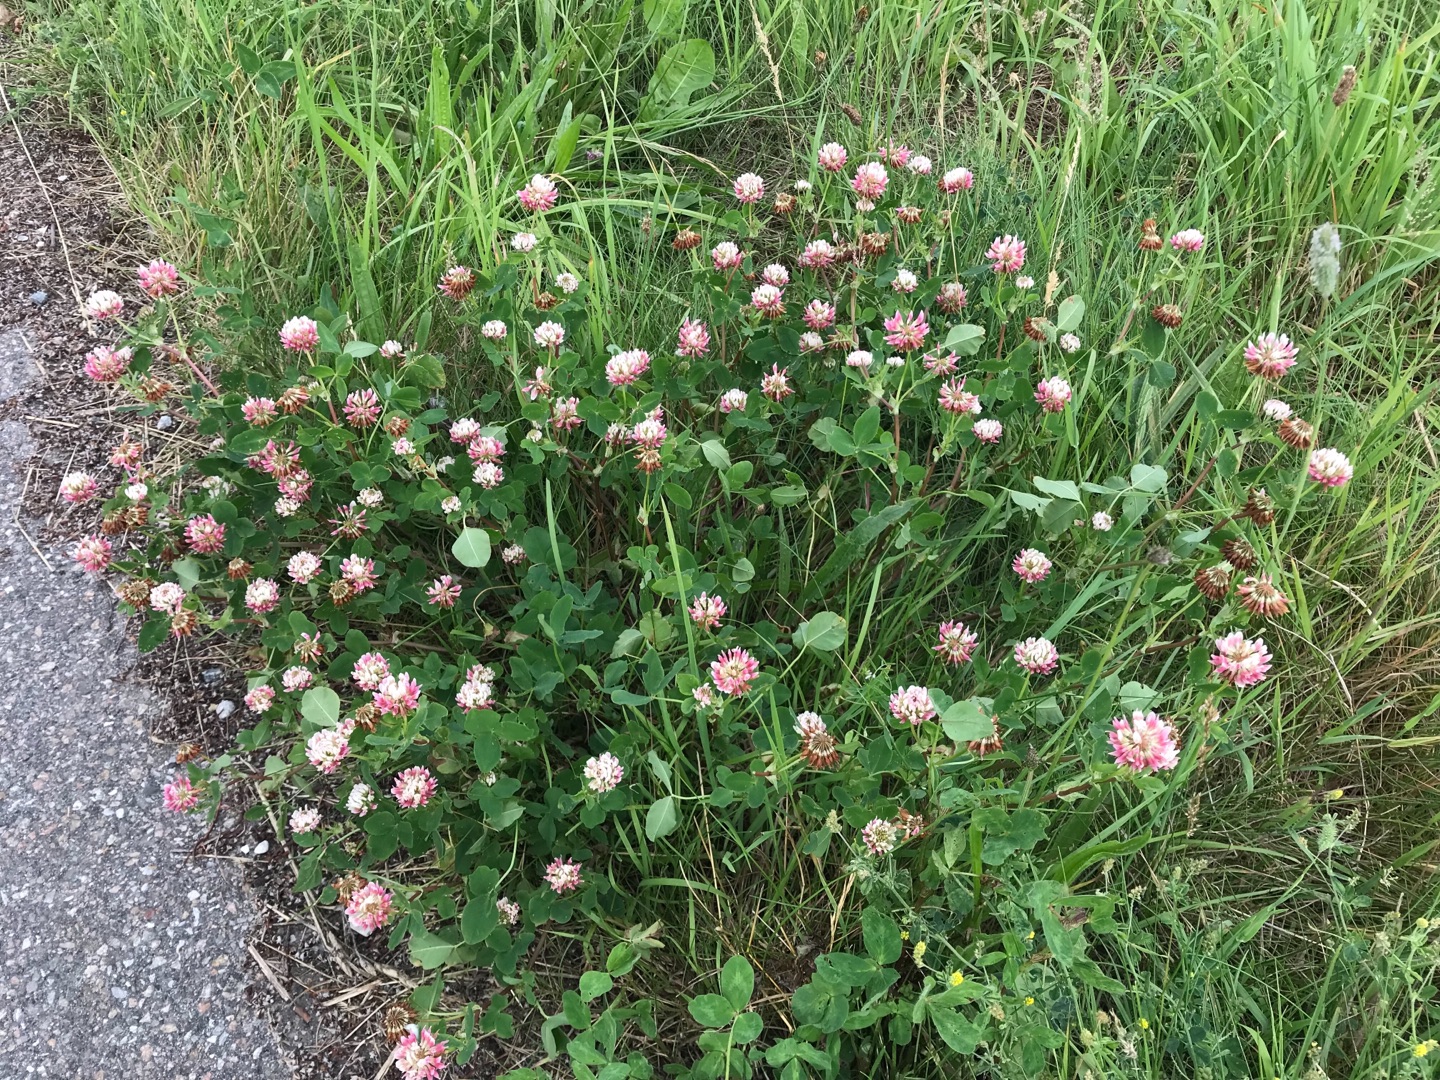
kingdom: Plantae
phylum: Tracheophyta
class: Magnoliopsida
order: Fabales
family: Fabaceae
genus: Trifolium
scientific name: Trifolium hybridum
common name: Alsike-kløver
